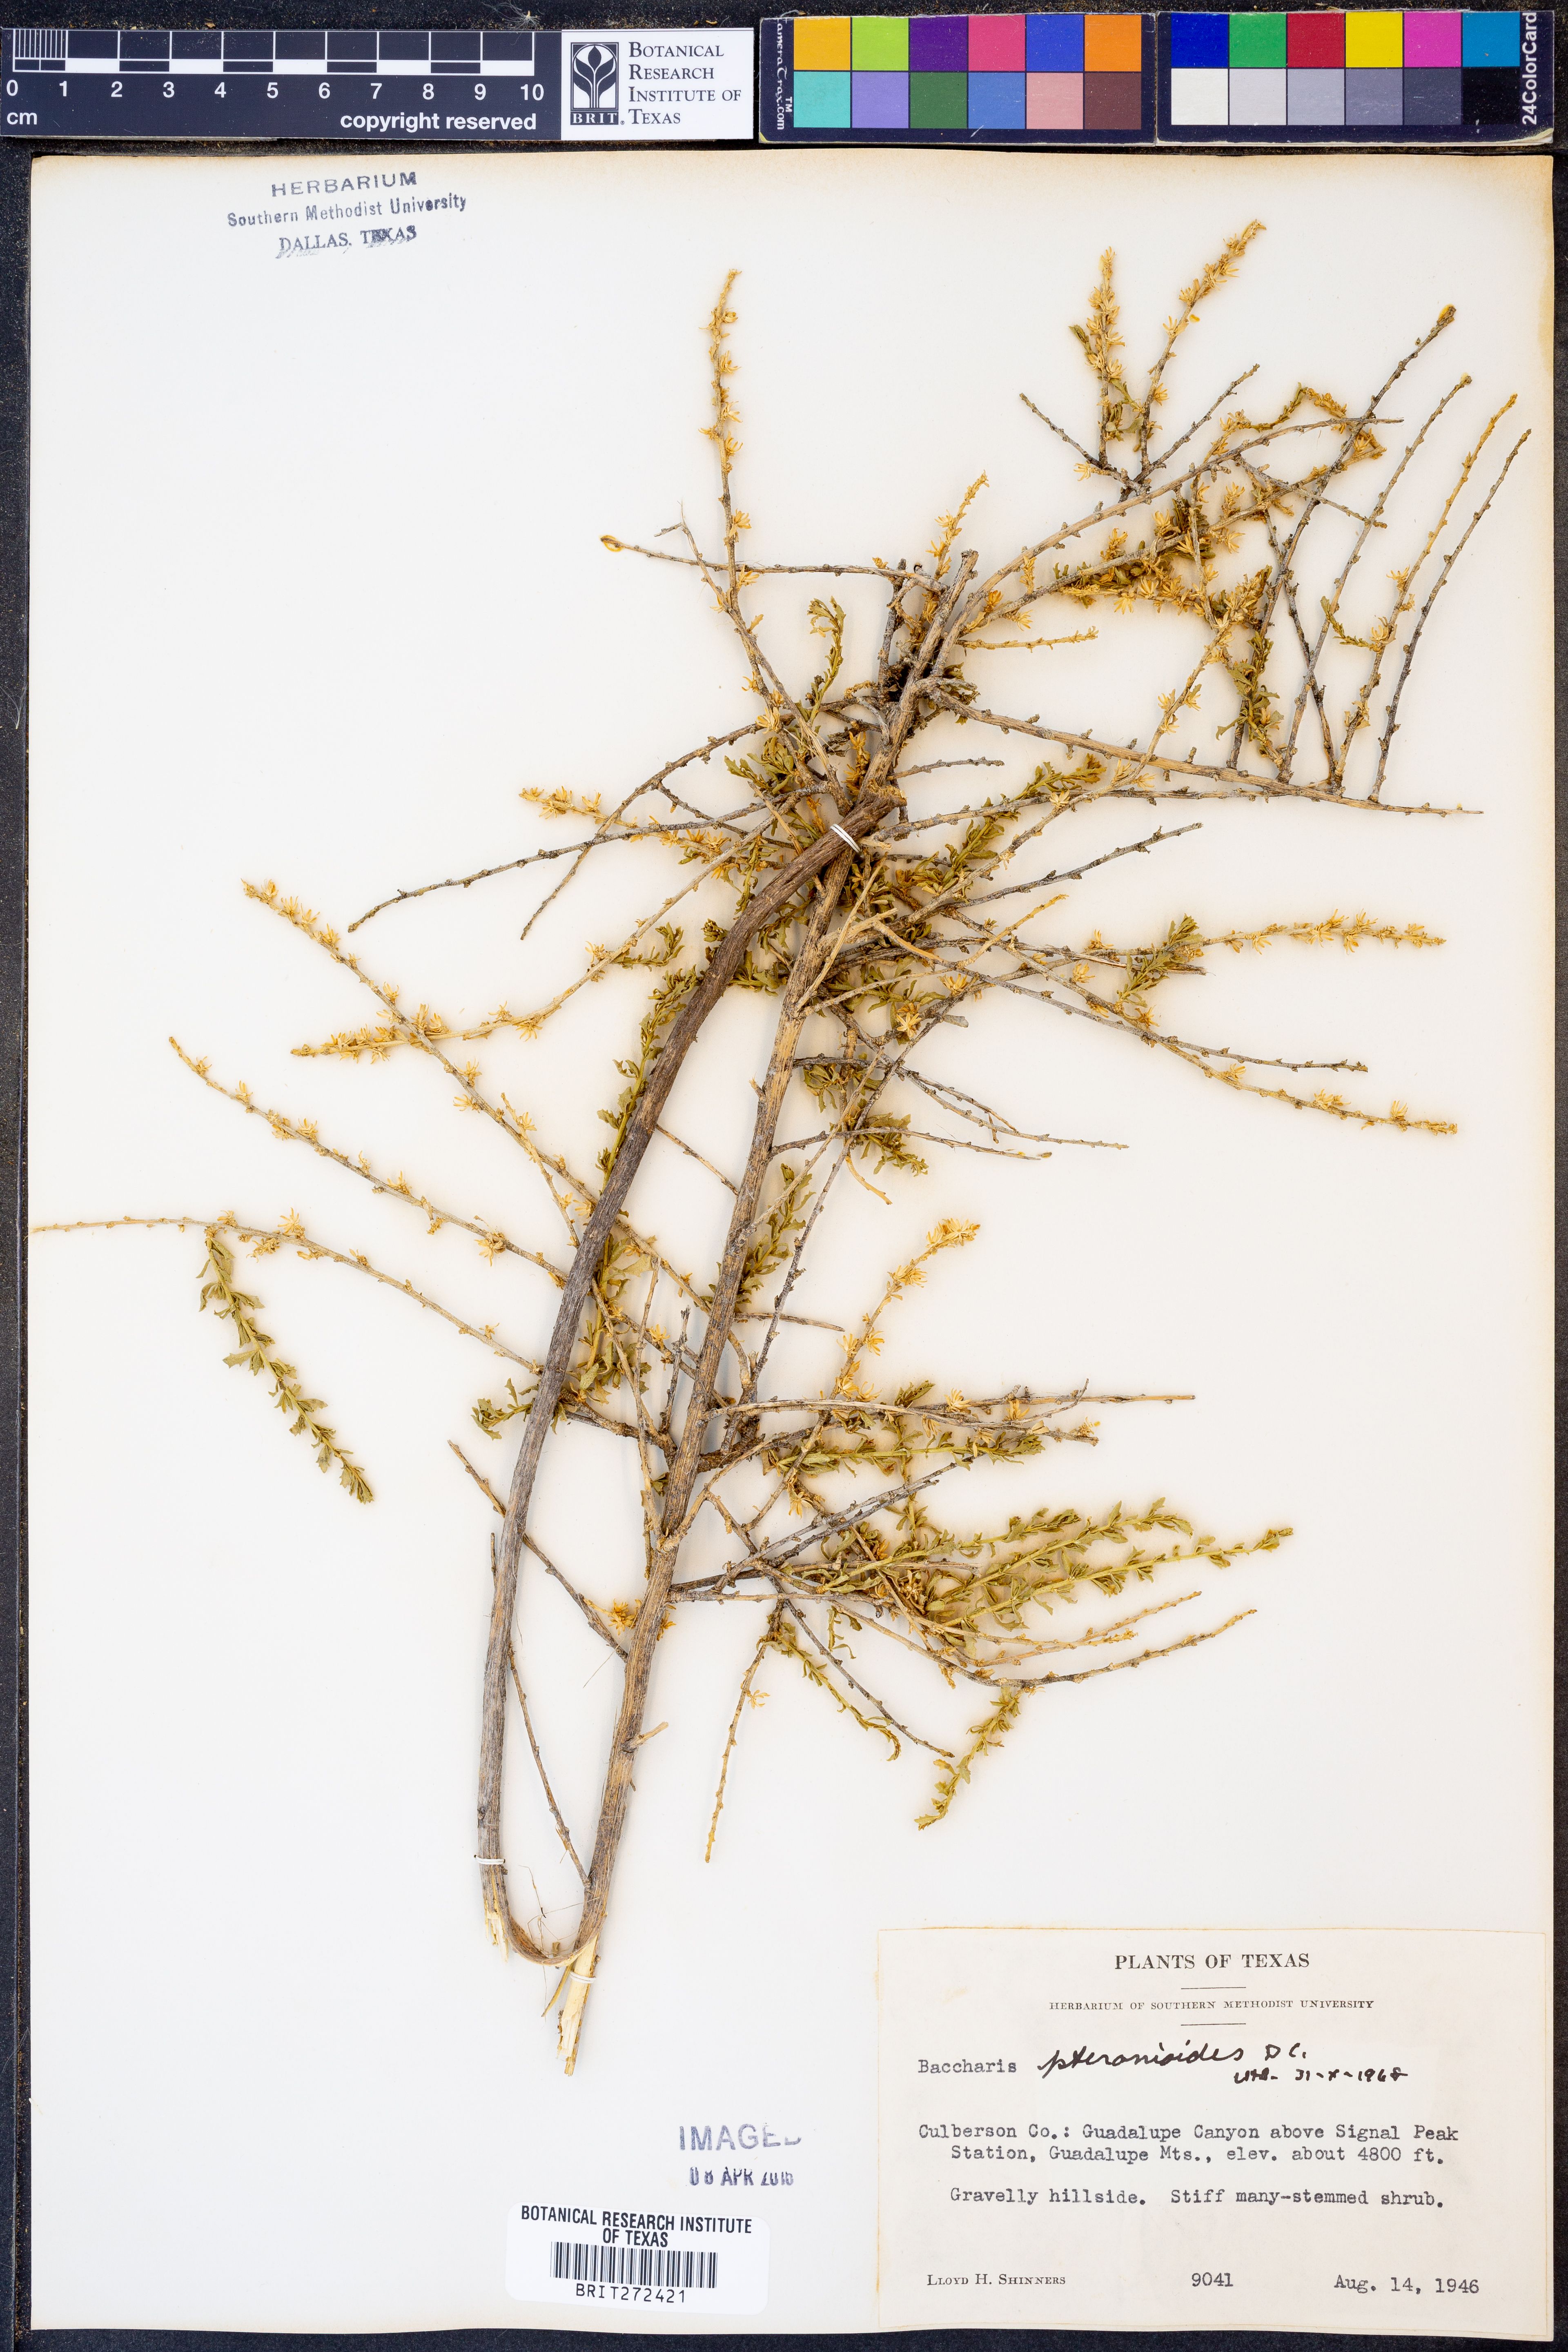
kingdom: Plantae
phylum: Tracheophyta
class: Magnoliopsida
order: Asterales
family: Asteraceae
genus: Baccharis
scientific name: Baccharis pteronioides
